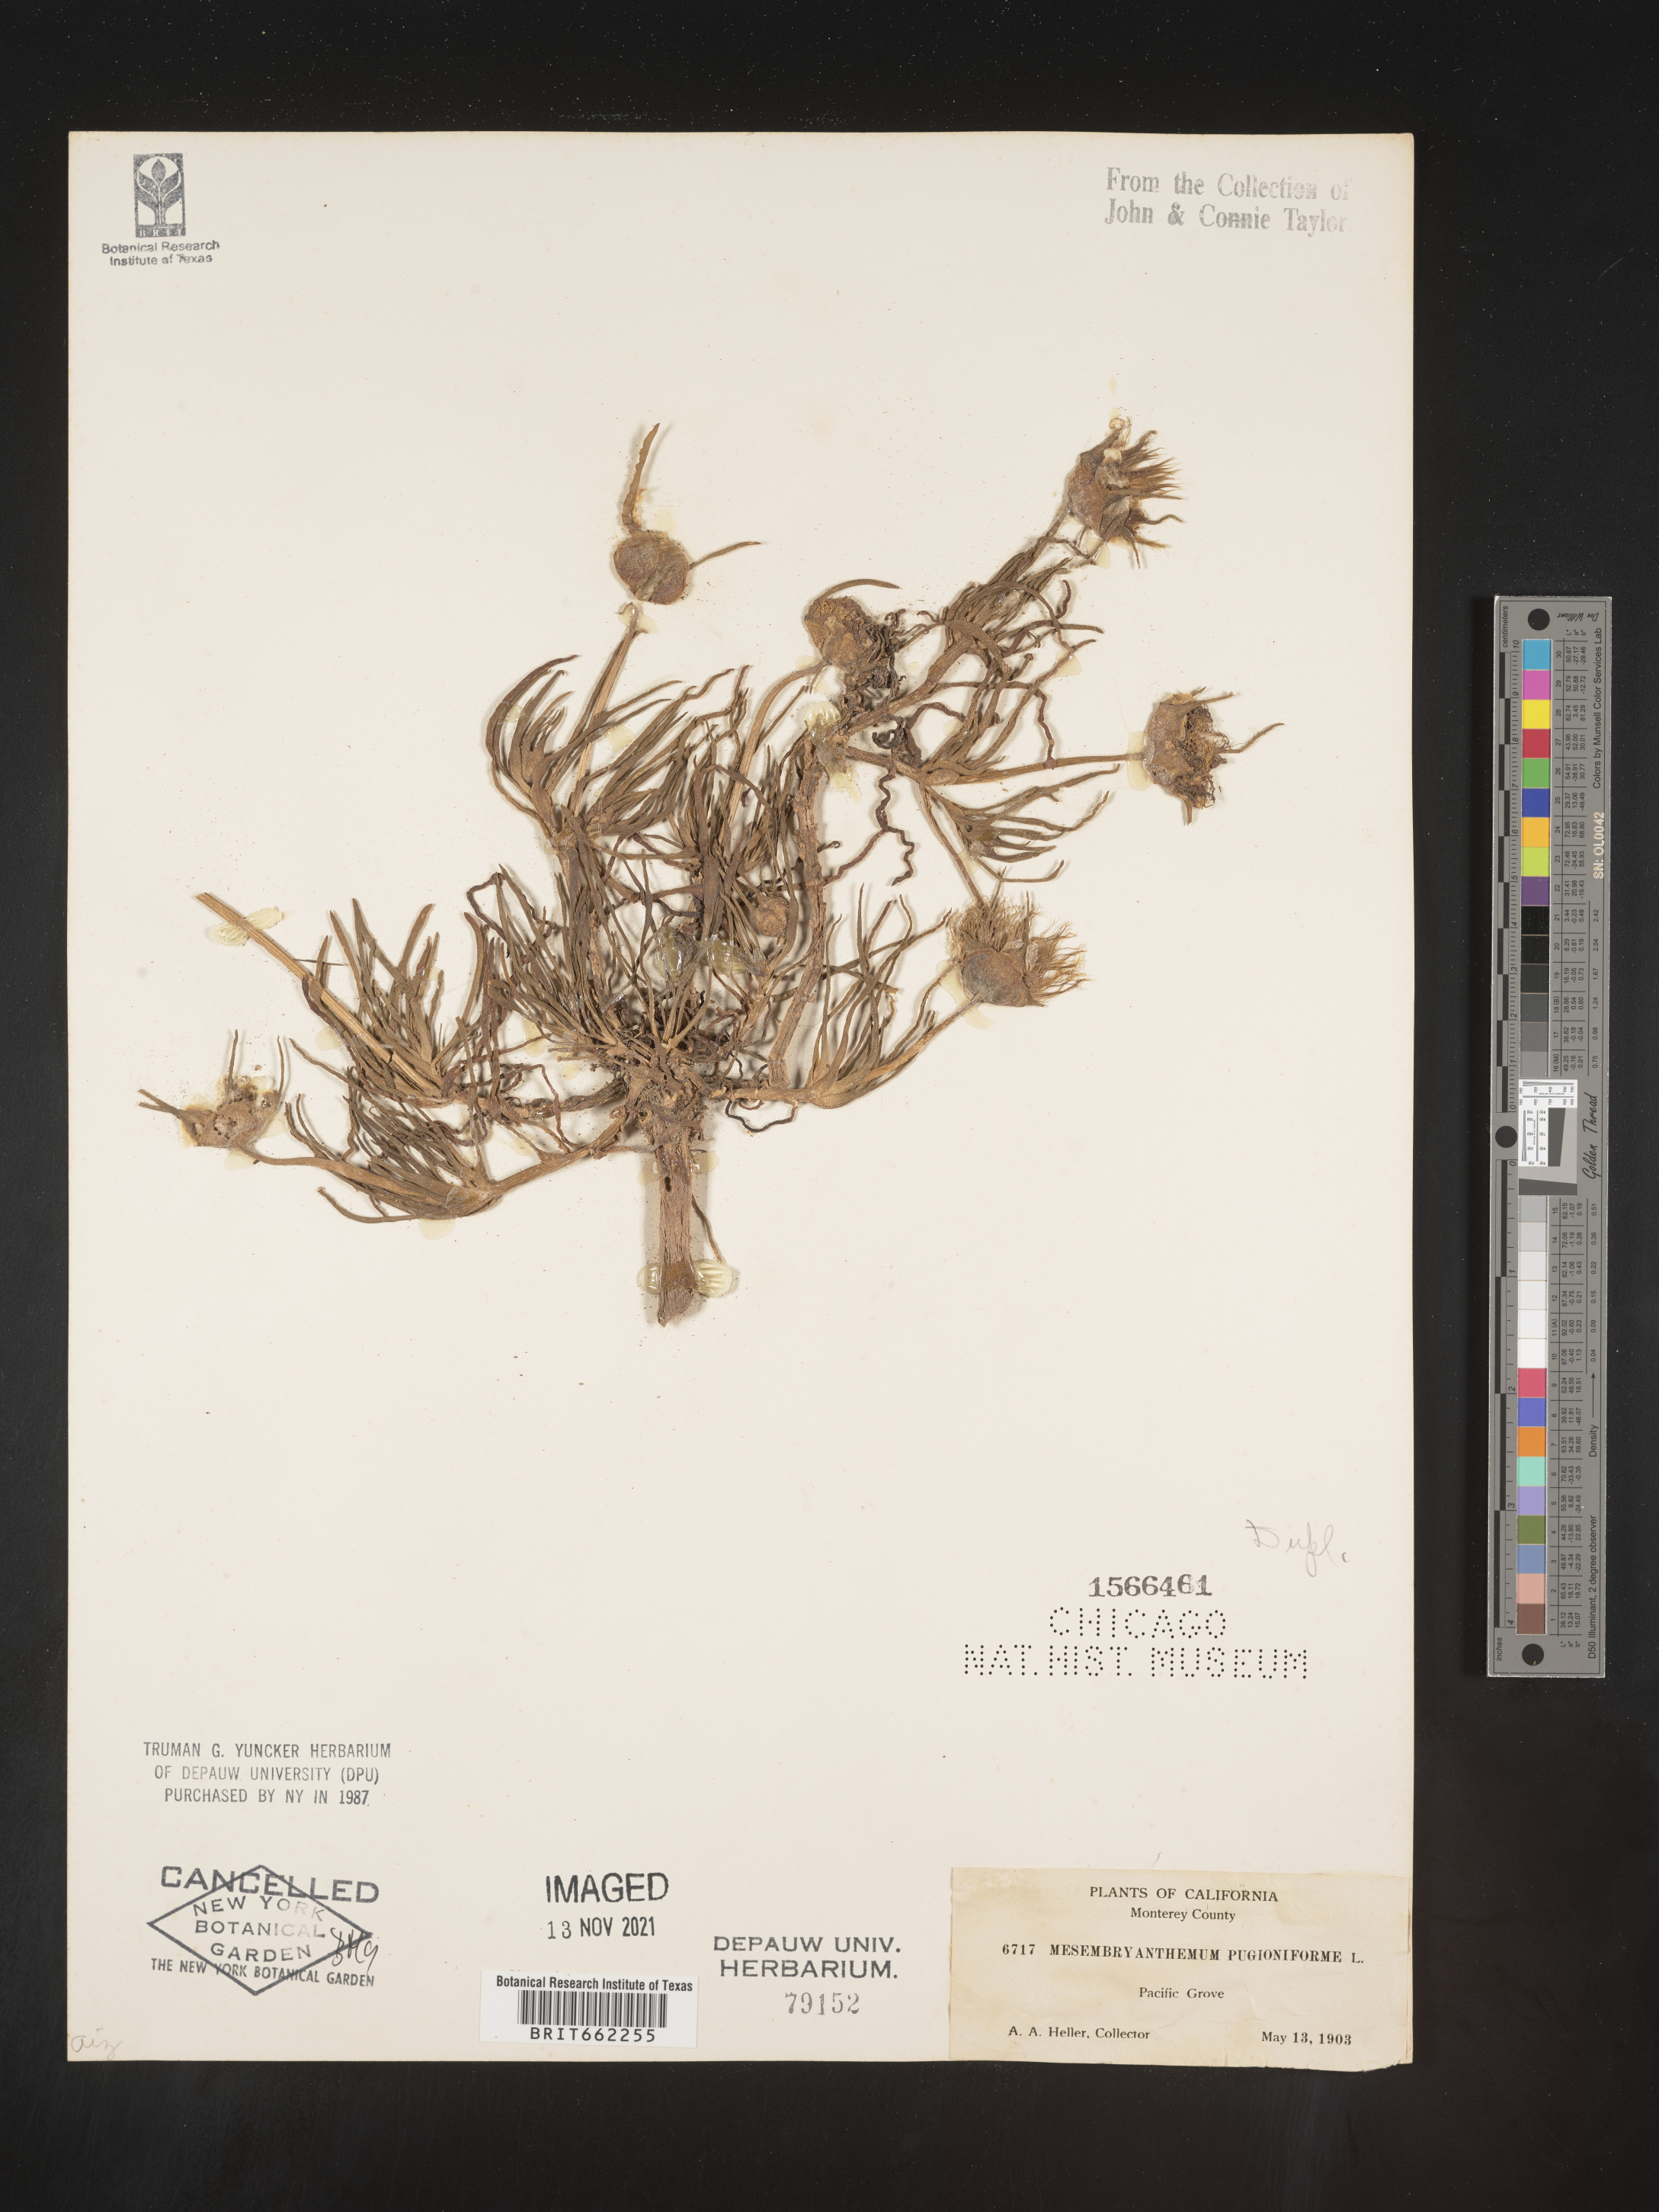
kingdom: Plantae
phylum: Tracheophyta
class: Magnoliopsida
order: Caryophyllales
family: Aizoaceae
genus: Mesembryanthemum
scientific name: Mesembryanthemum
